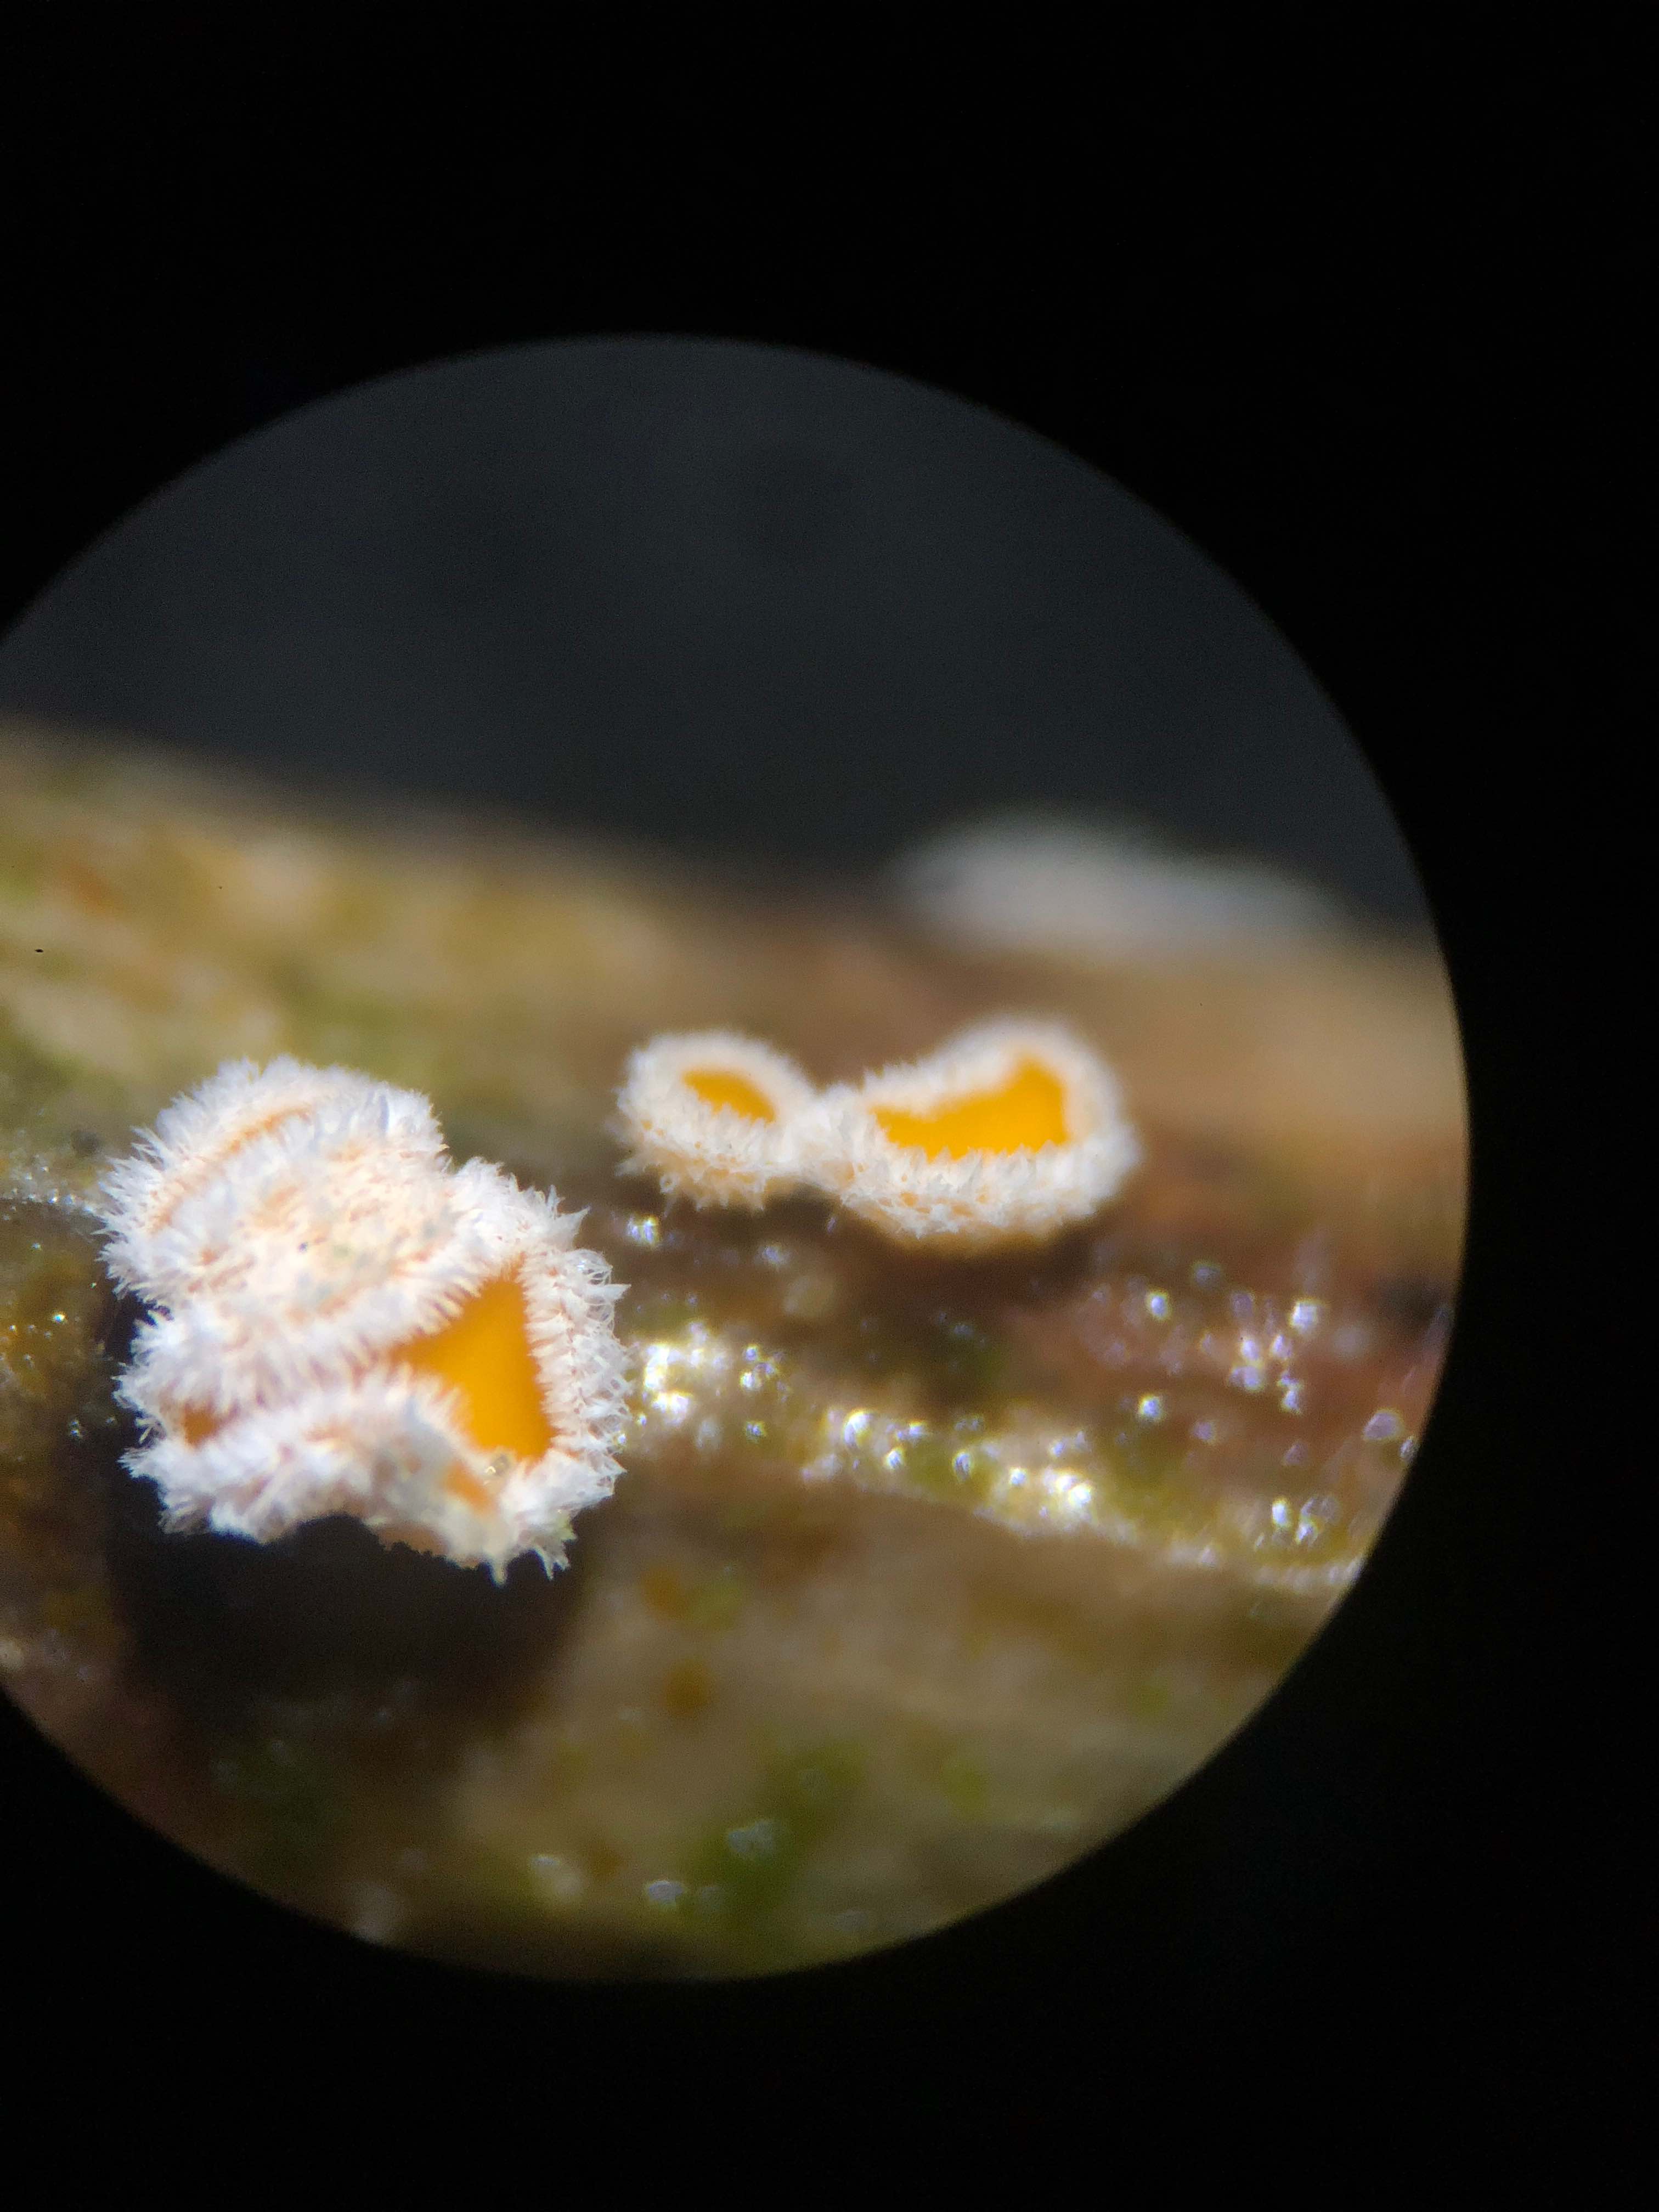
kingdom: Fungi
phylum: Ascomycota
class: Leotiomycetes
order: Helotiales
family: Lachnaceae
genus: Capitotricha
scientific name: Capitotricha bicolor
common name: prægtig frynseskive
